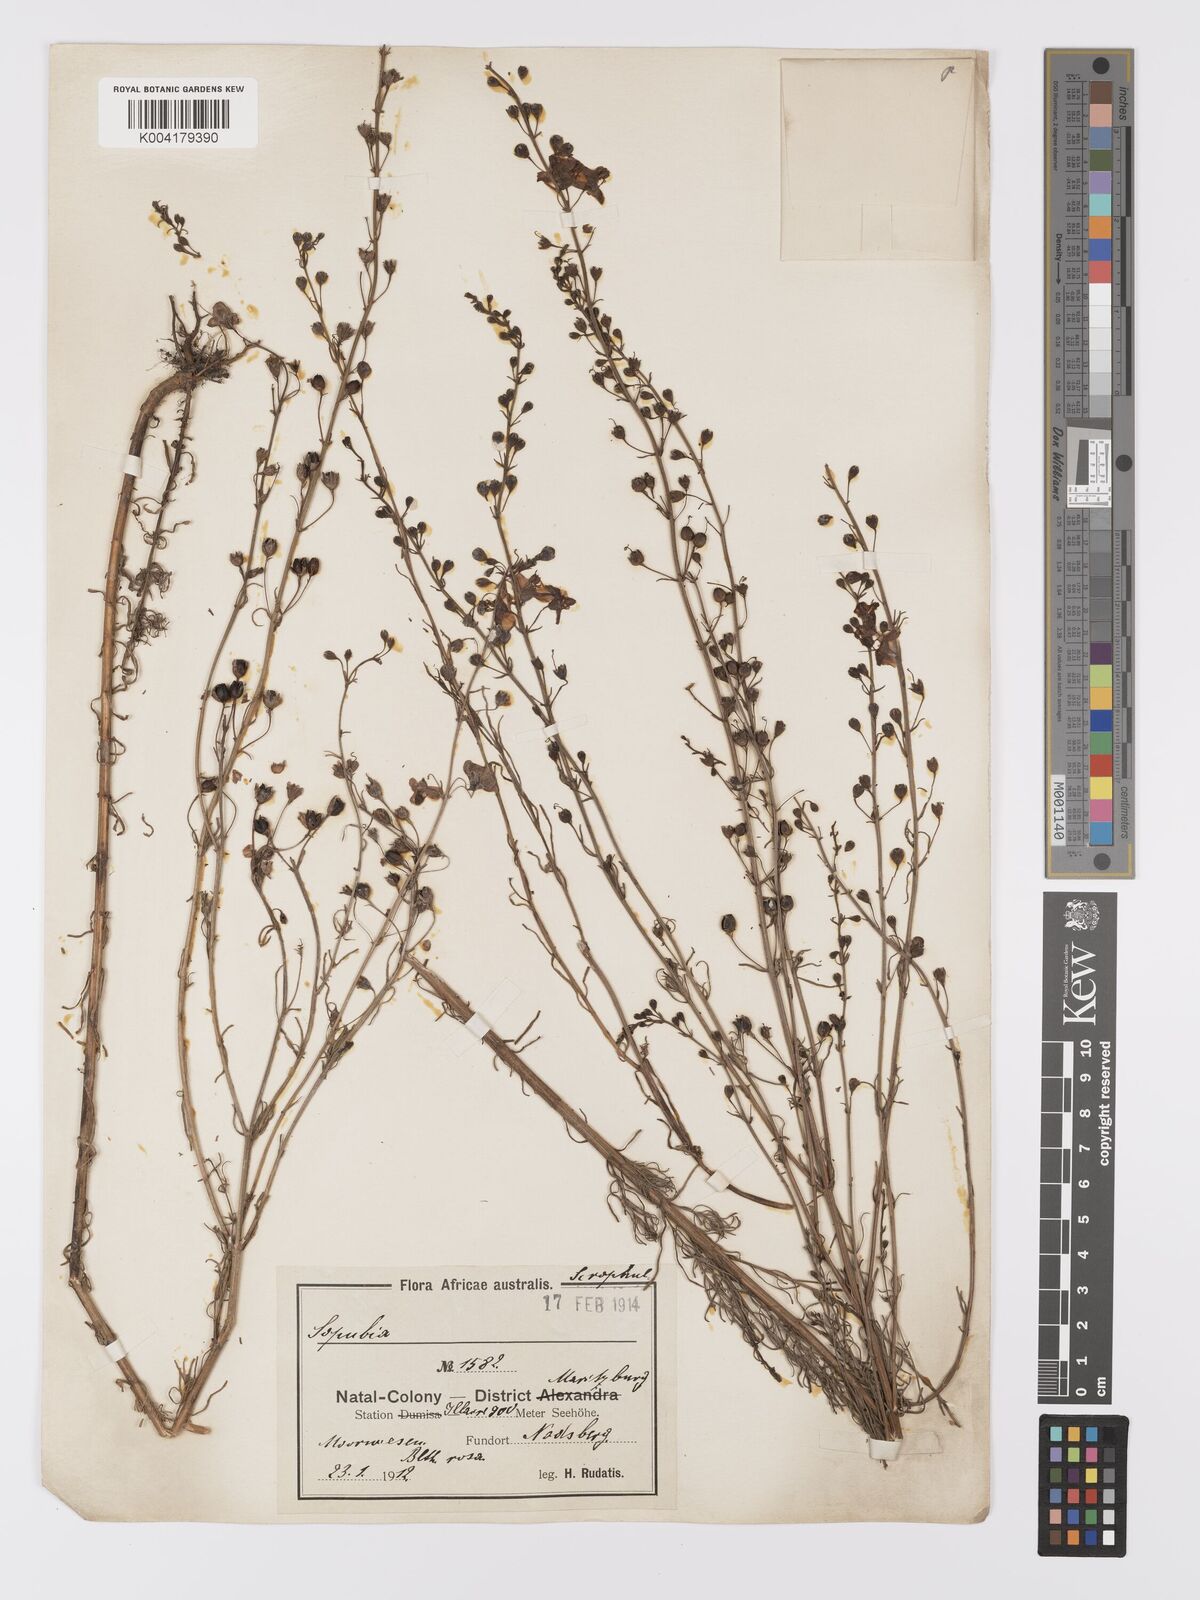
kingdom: Plantae
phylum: Tracheophyta
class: Magnoliopsida
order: Lamiales
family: Orobanchaceae
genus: Sopubia
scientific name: Sopubia simplex
